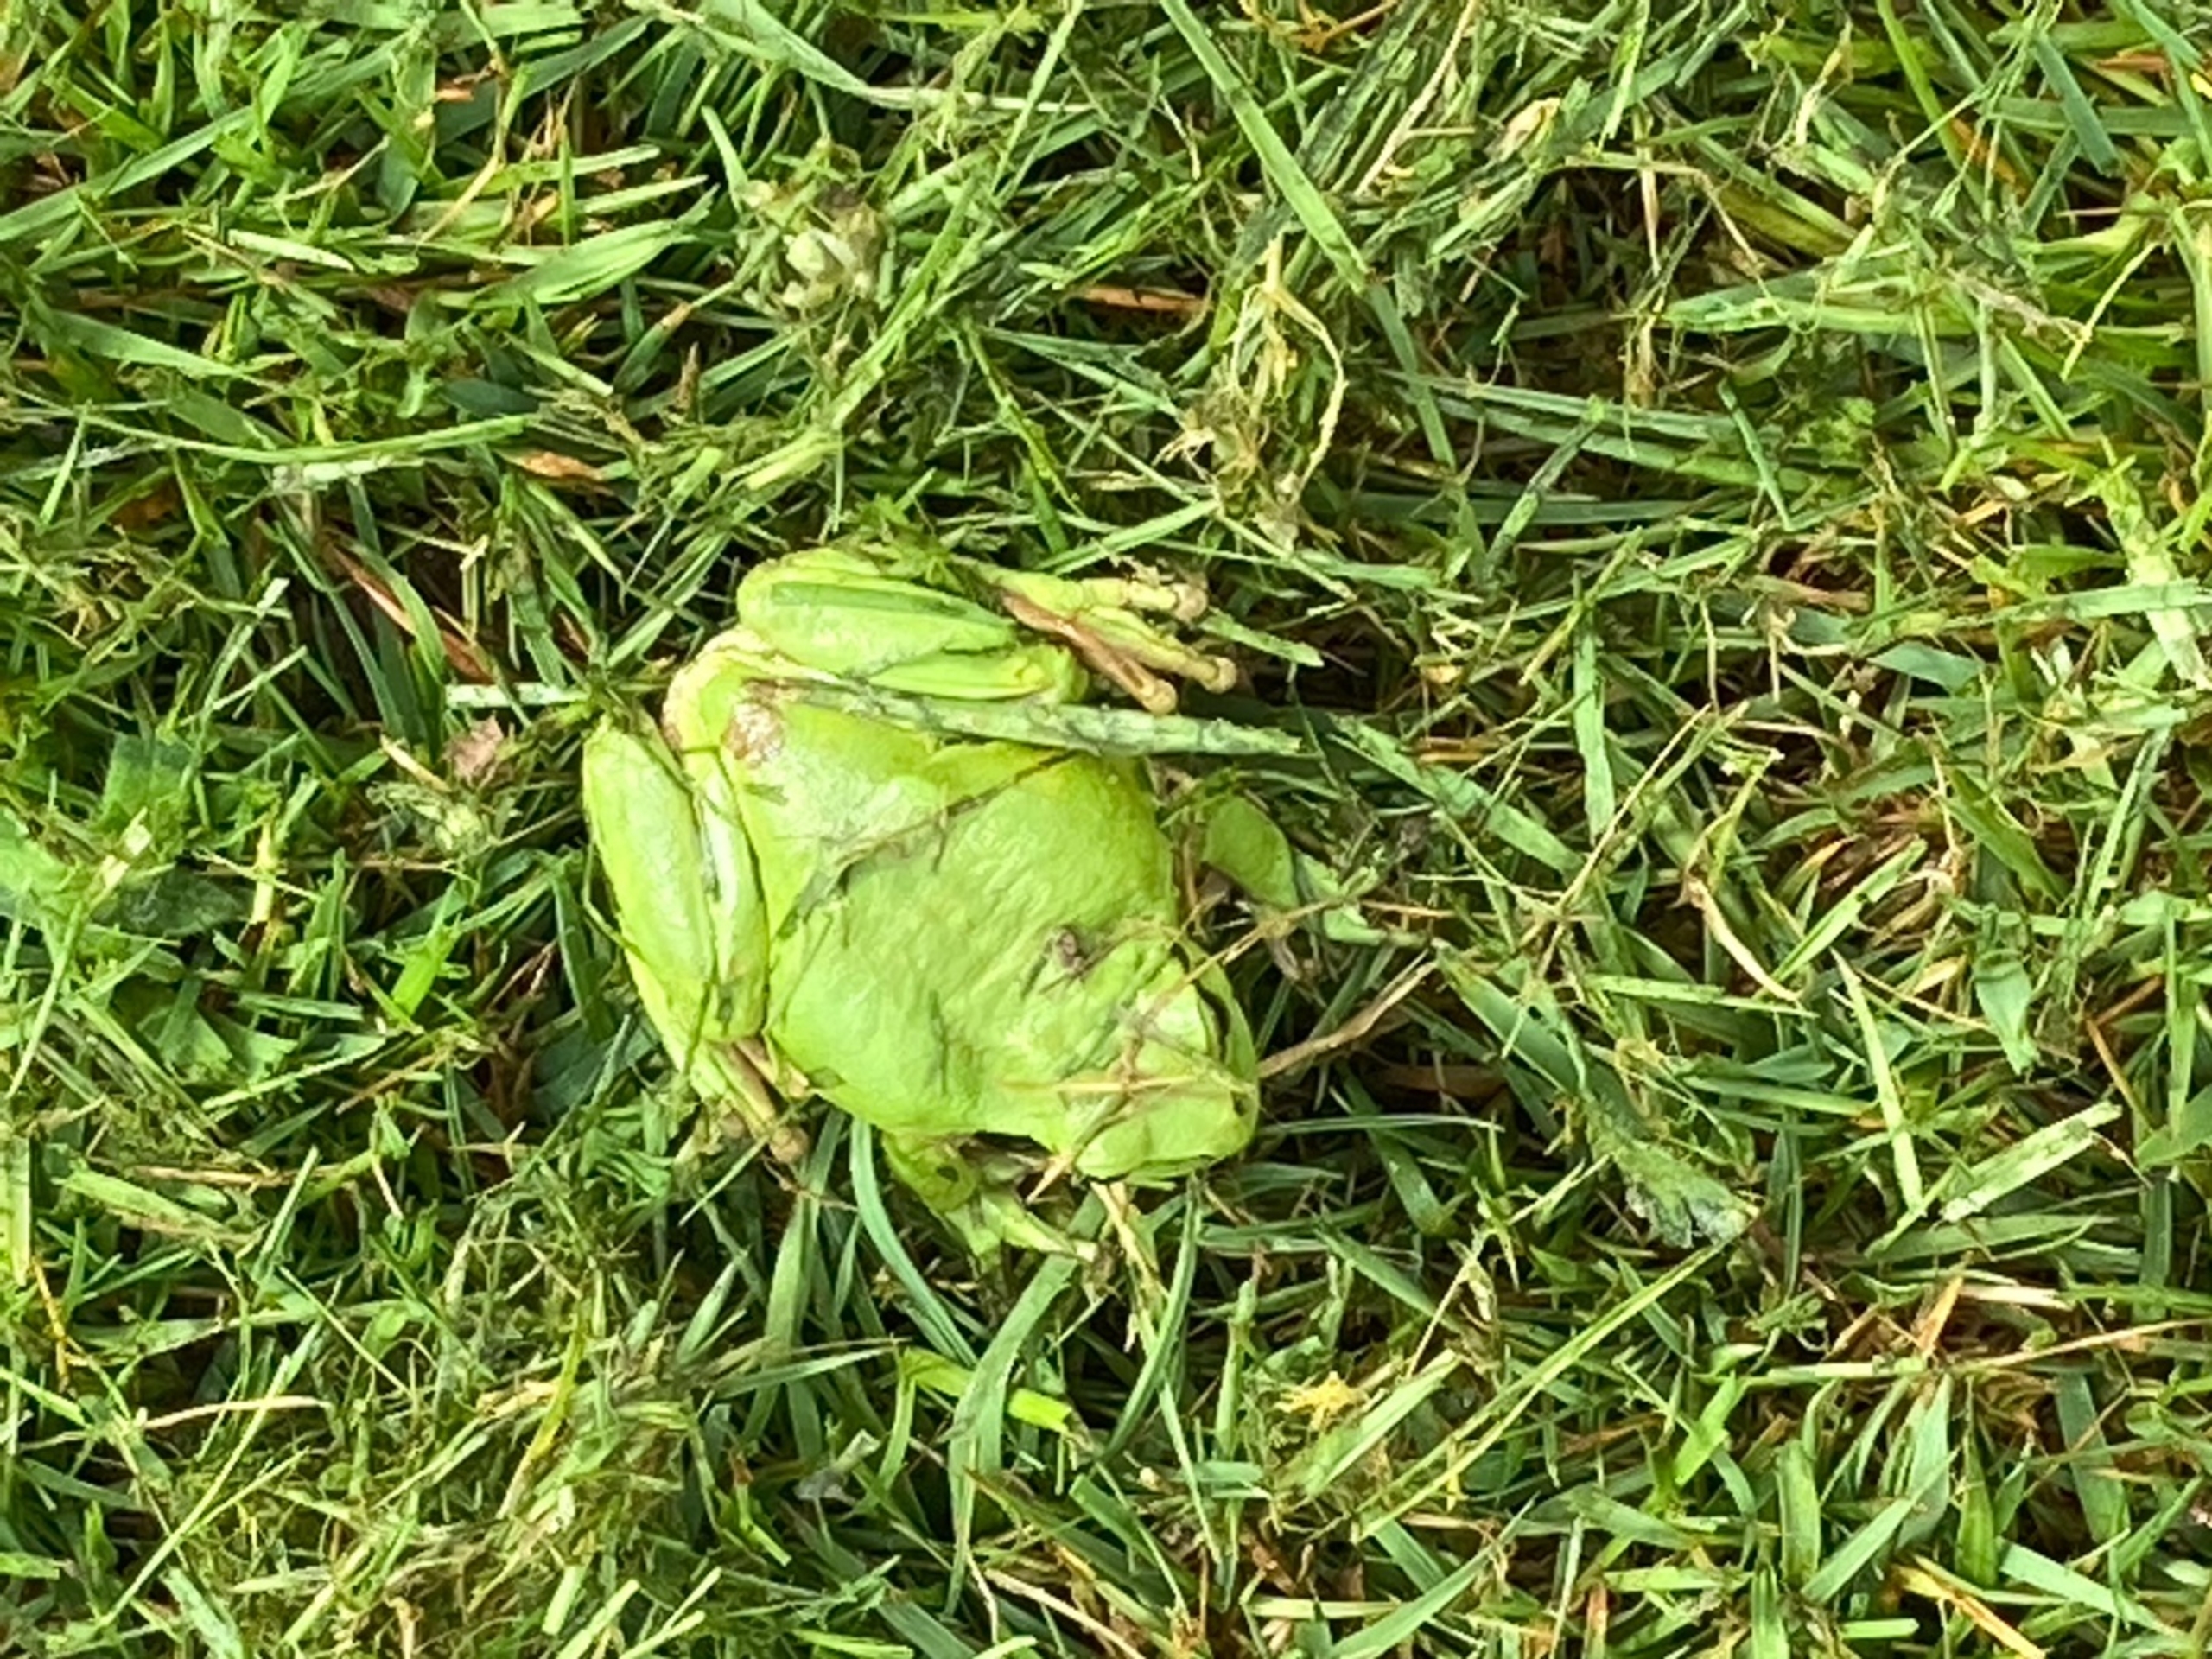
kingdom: Animalia
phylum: Chordata
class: Amphibia
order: Anura
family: Hylidae
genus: Hyla
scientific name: Hyla arborea
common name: Løvfrø
